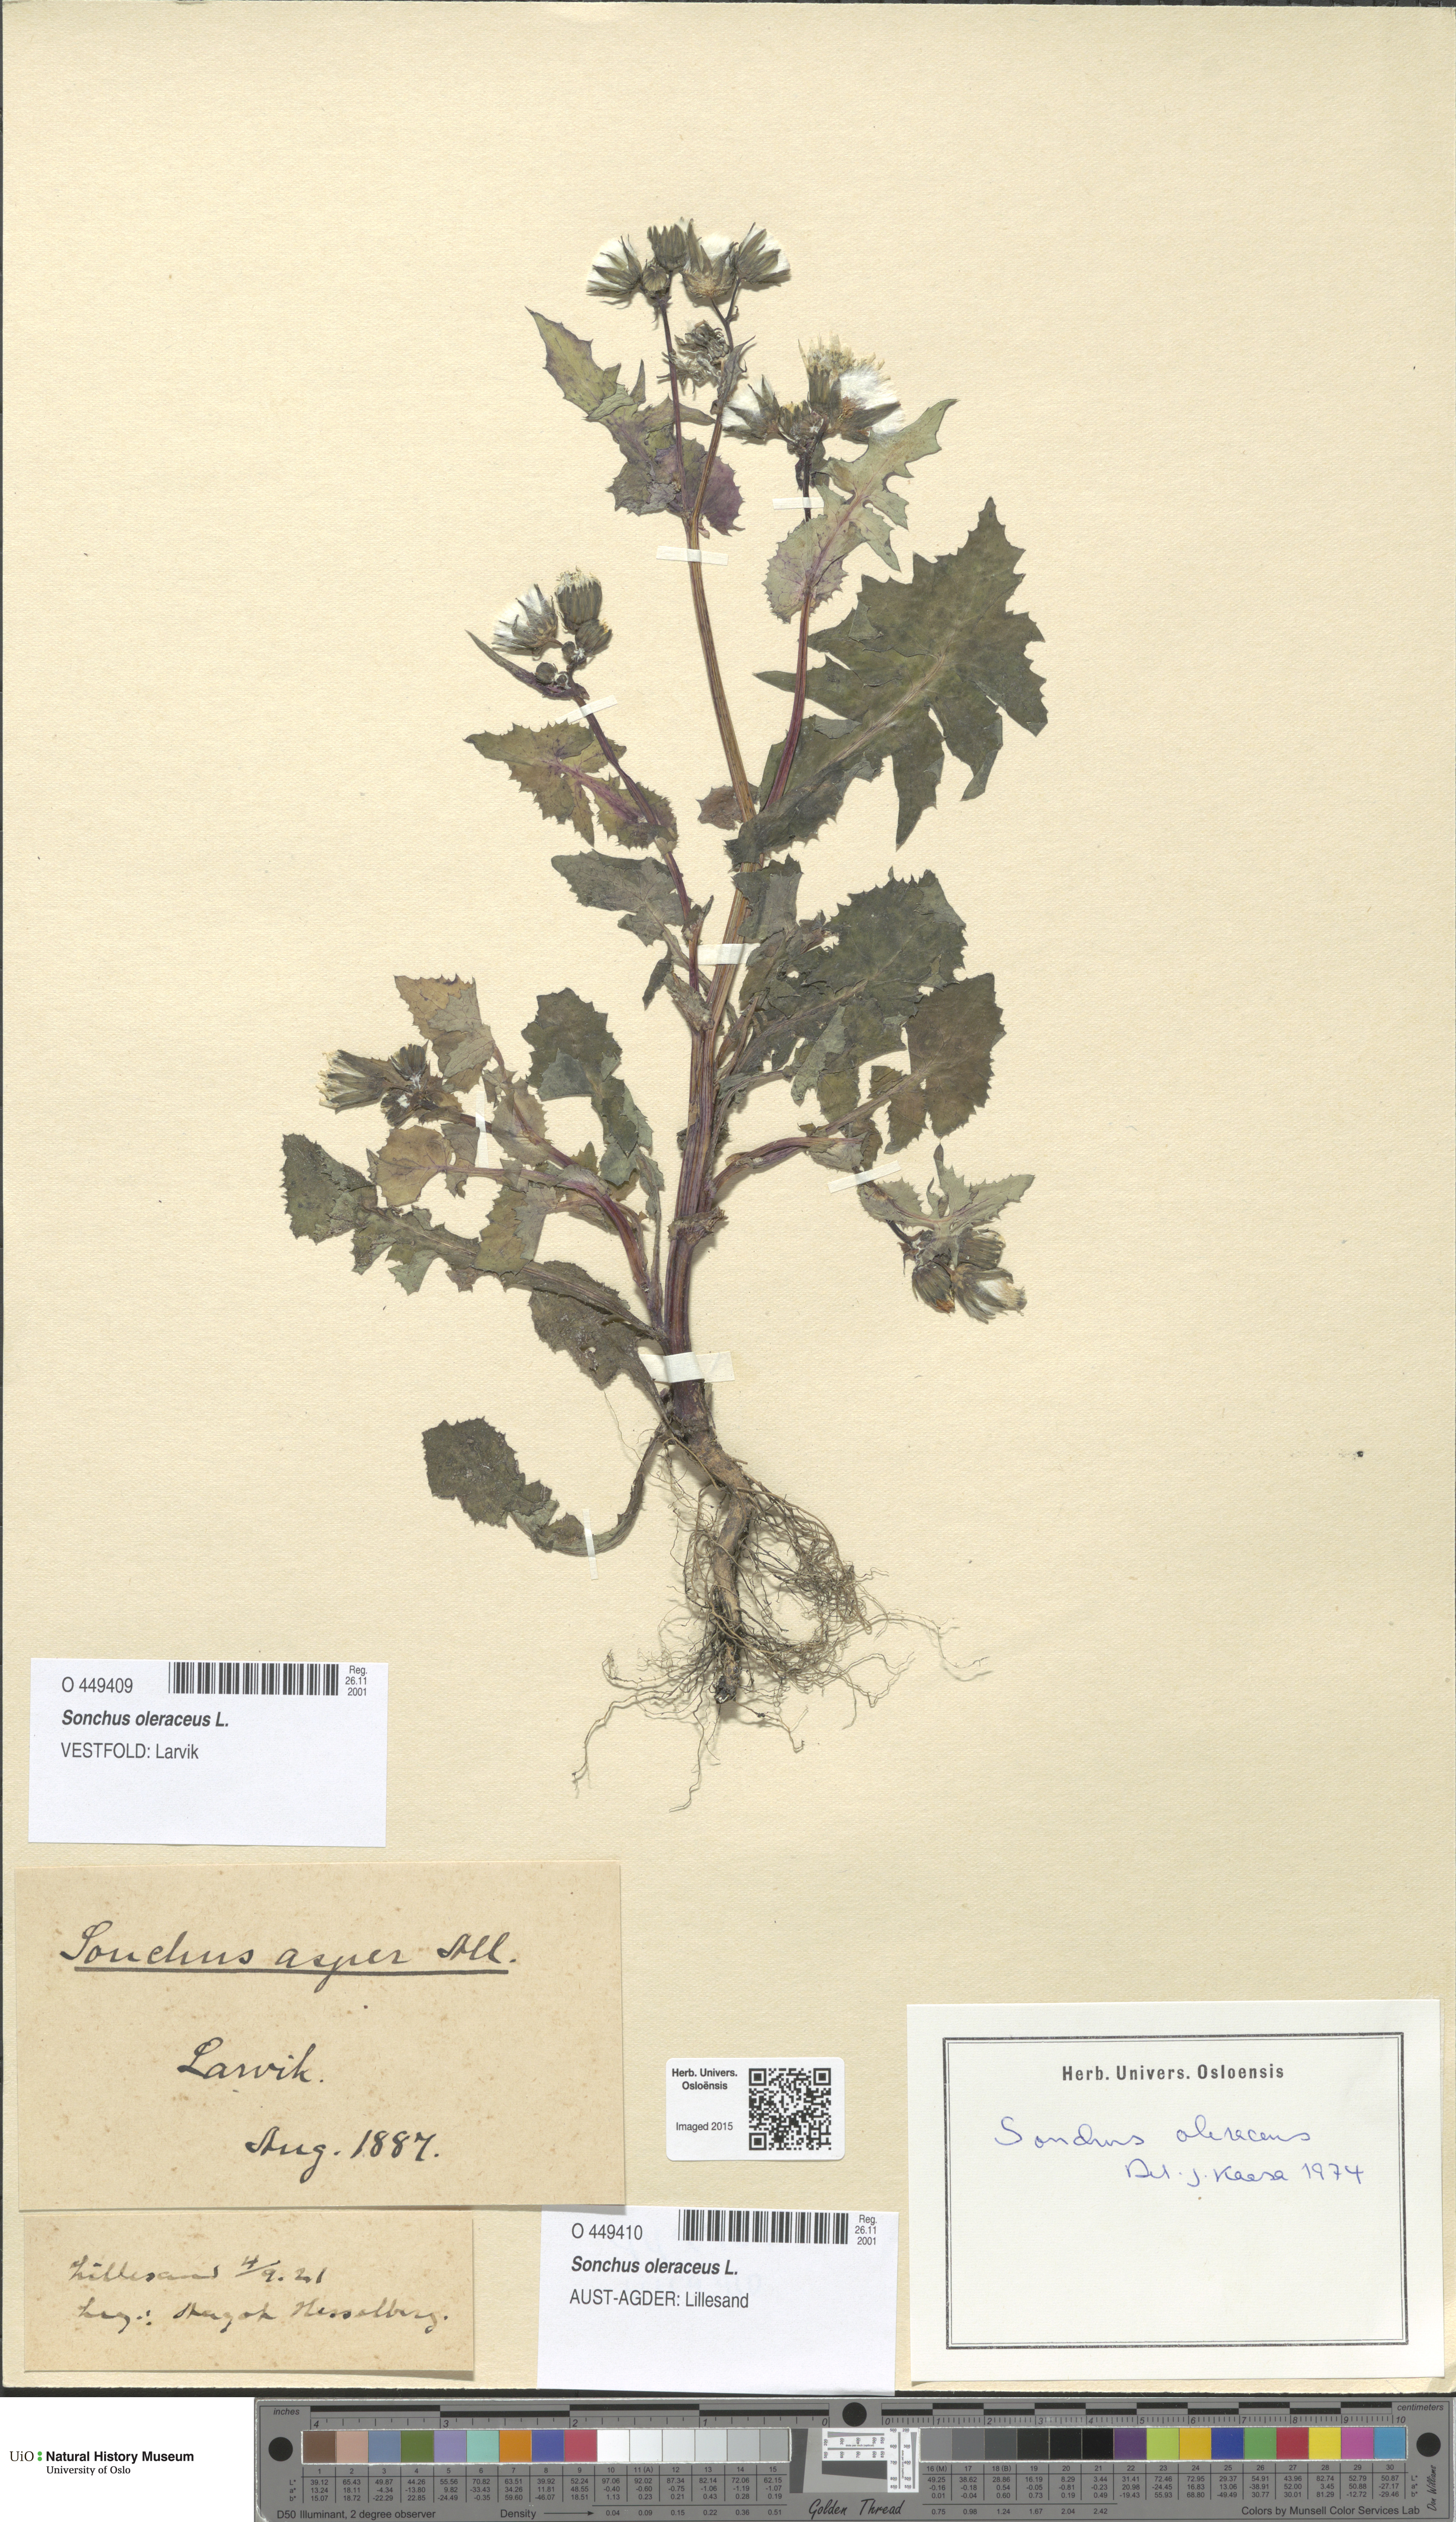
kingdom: Plantae
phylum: Tracheophyta
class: Magnoliopsida
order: Asterales
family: Asteraceae
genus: Sonchus
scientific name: Sonchus oleraceus
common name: Common sowthistle
